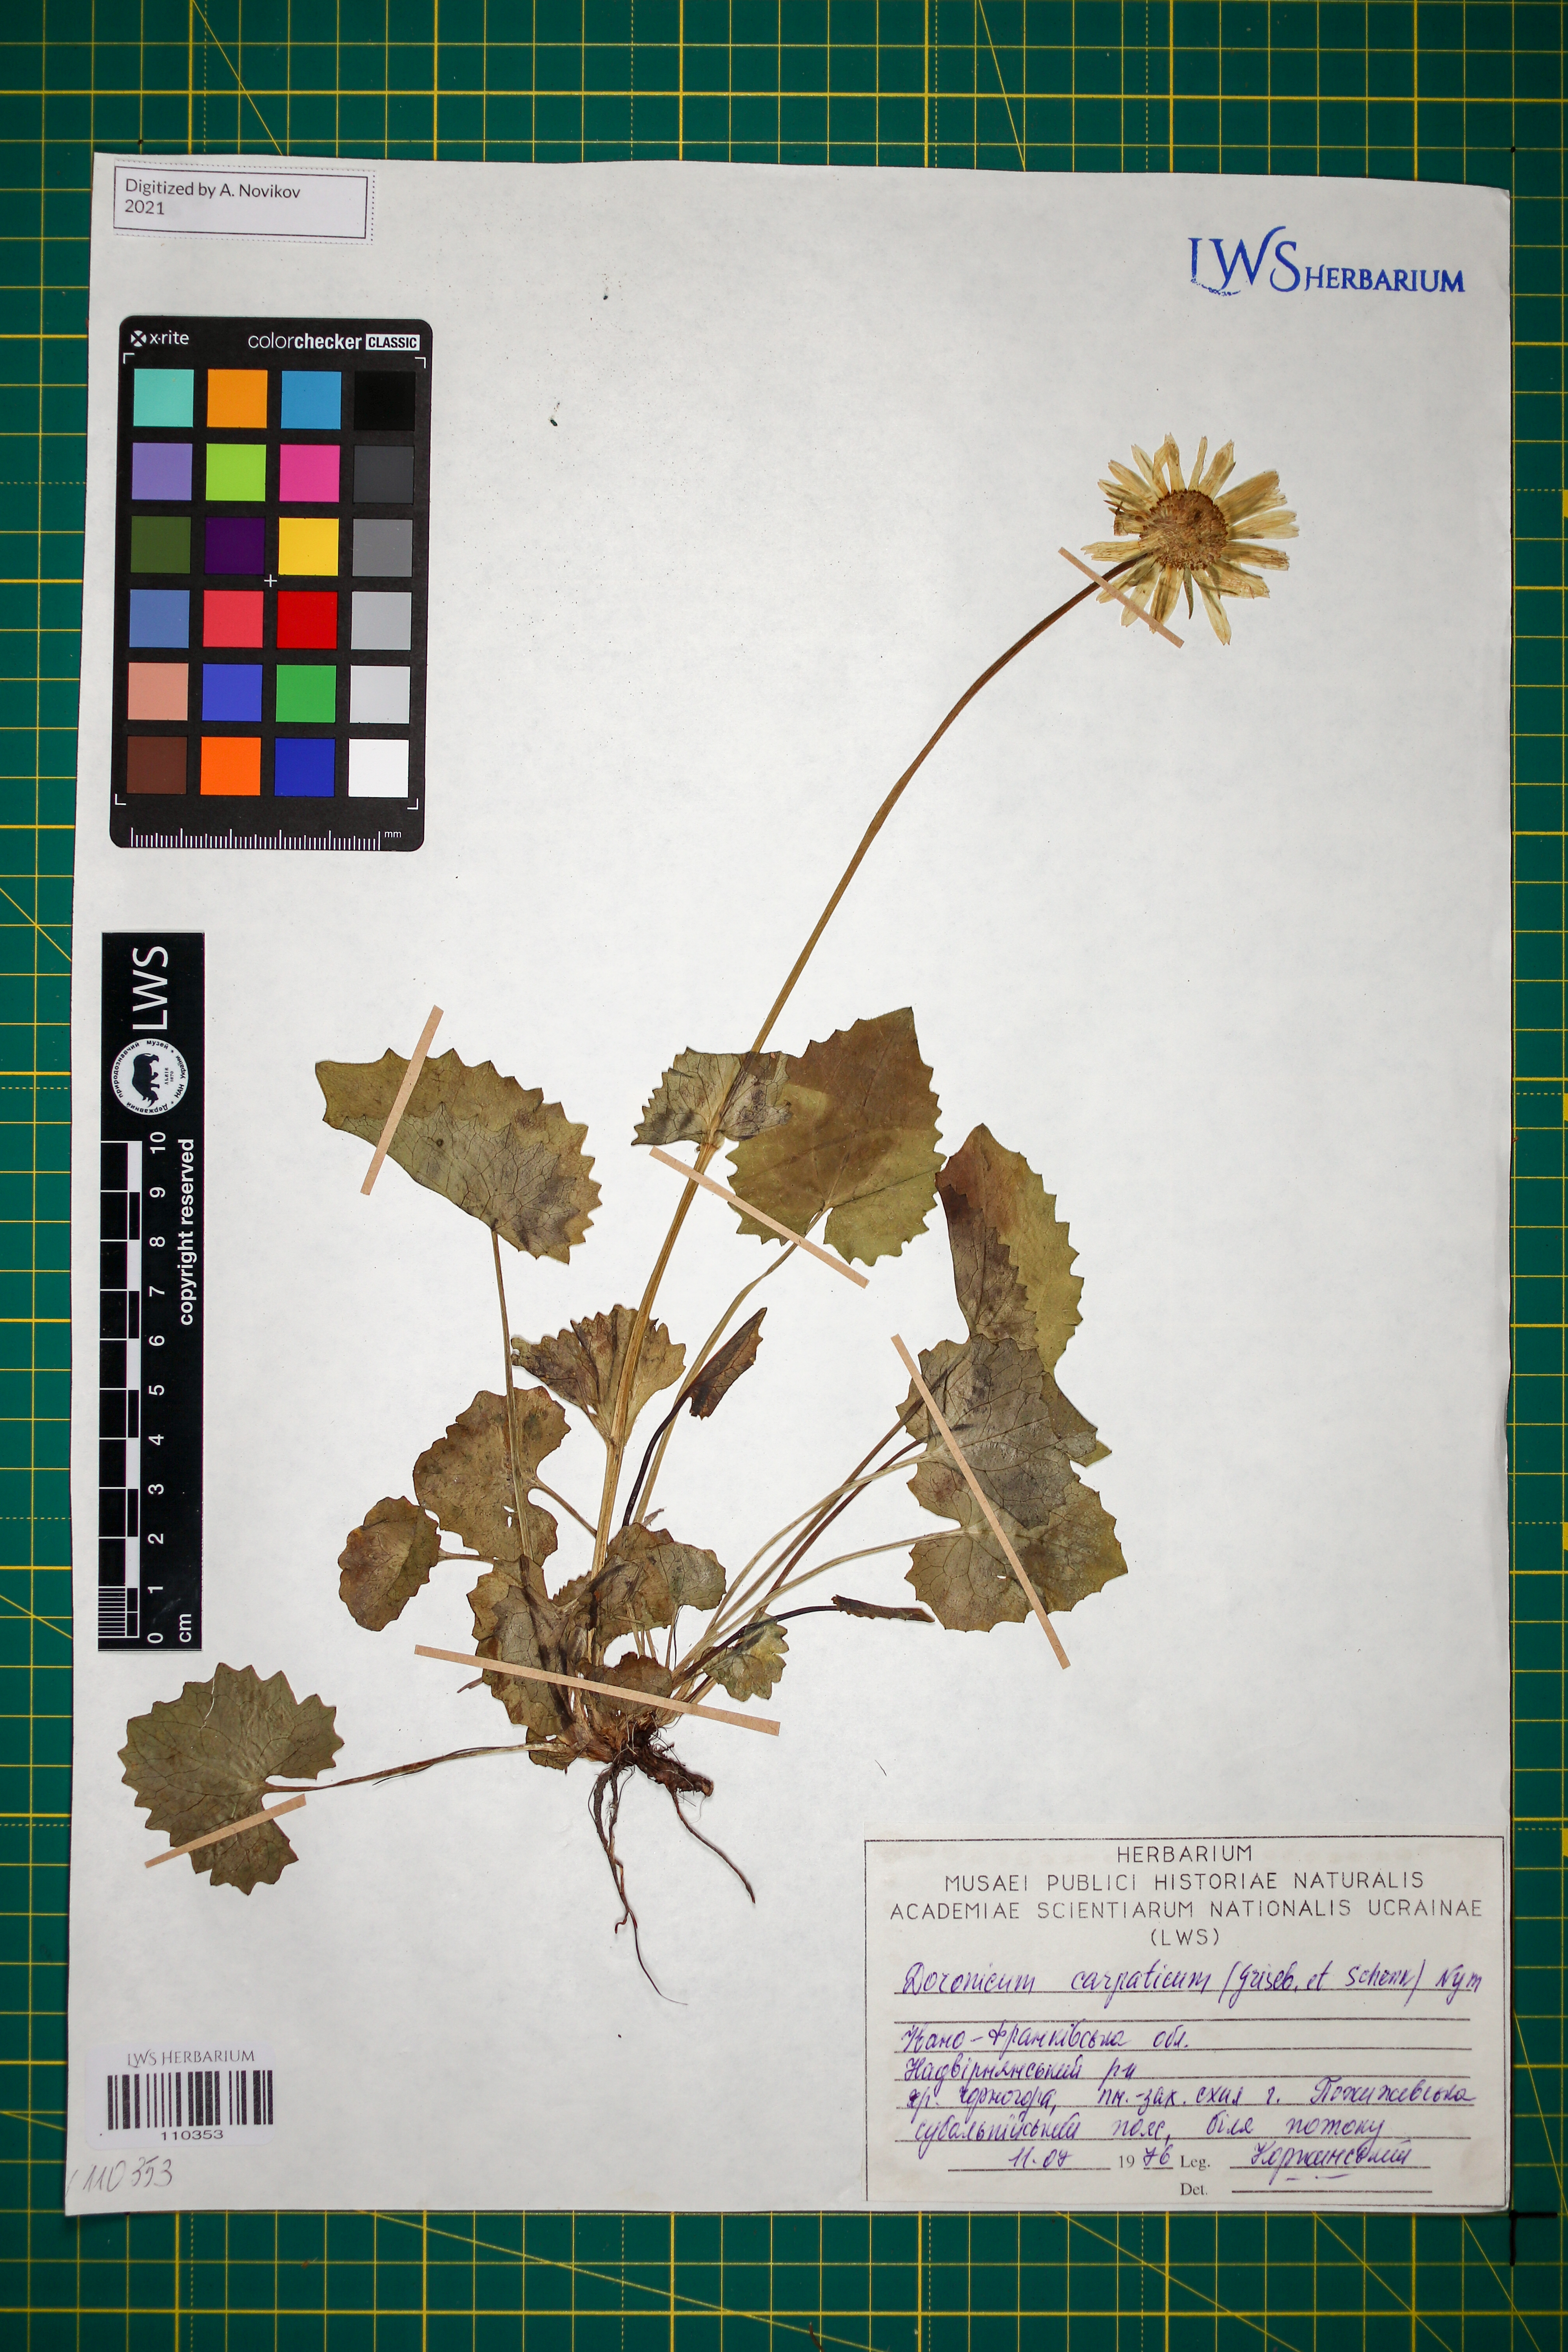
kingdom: Plantae
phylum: Tracheophyta
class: Magnoliopsida
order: Asterales
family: Asteraceae
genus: Doronicum
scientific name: Doronicum carpaticum
